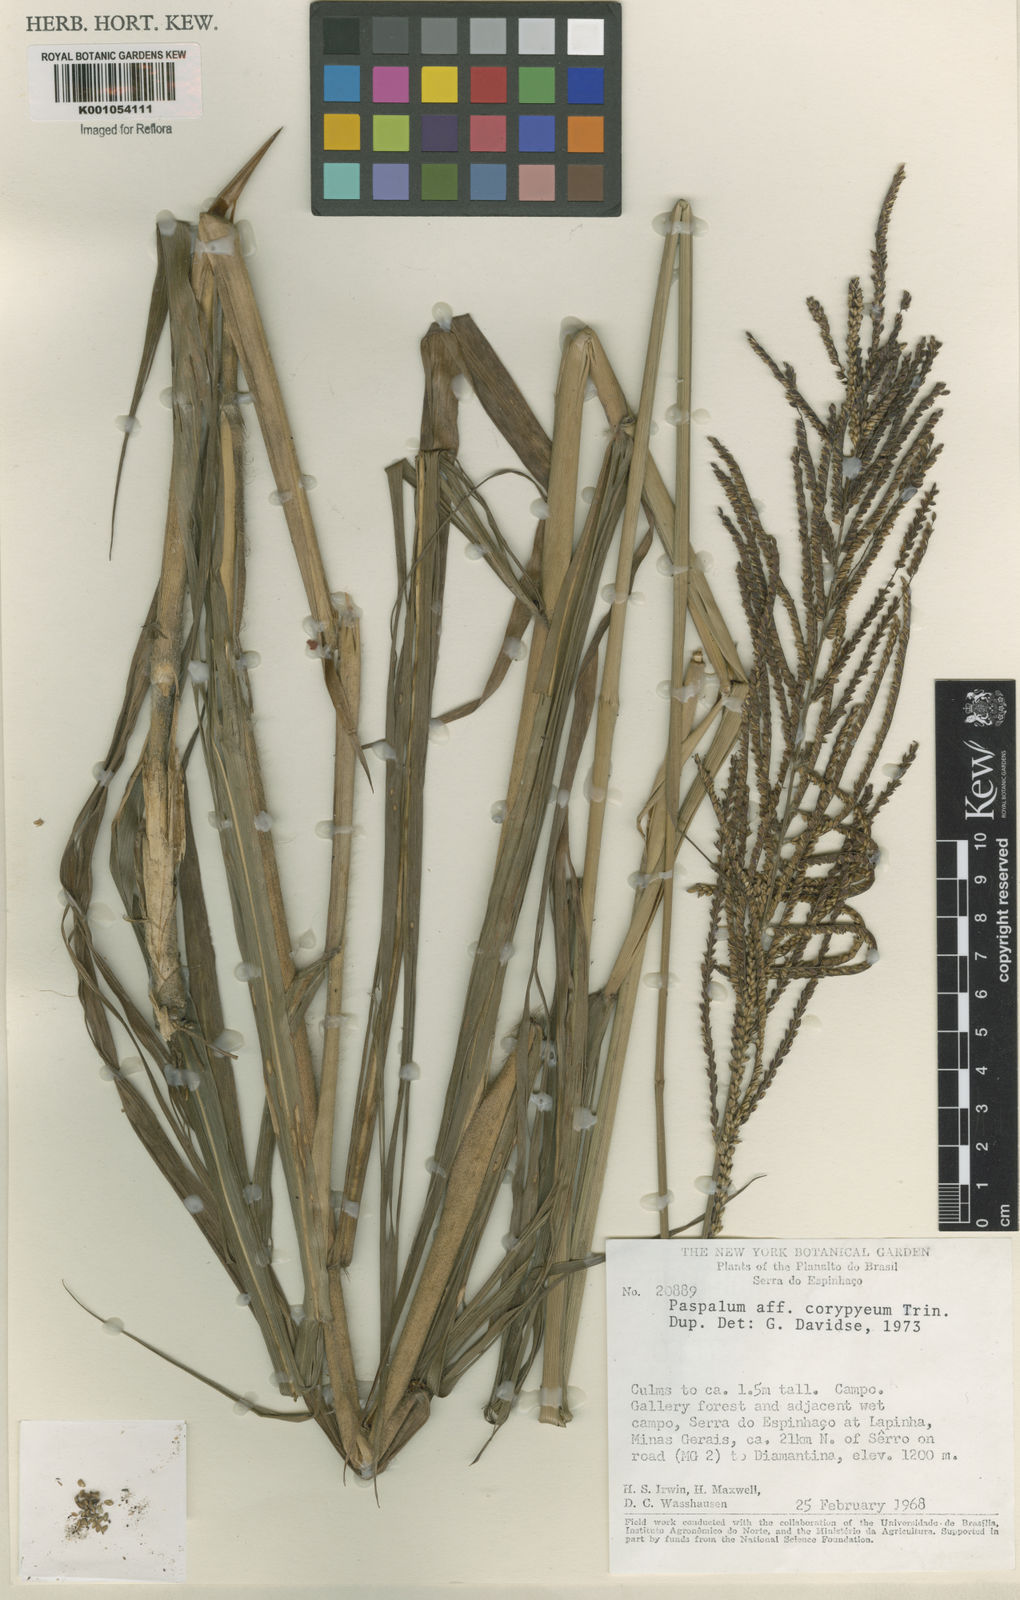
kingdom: Plantae
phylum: Tracheophyta
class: Liliopsida
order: Poales
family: Poaceae
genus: Paspalum
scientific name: Paspalum coryphaeum
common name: Emperor crowngrass
